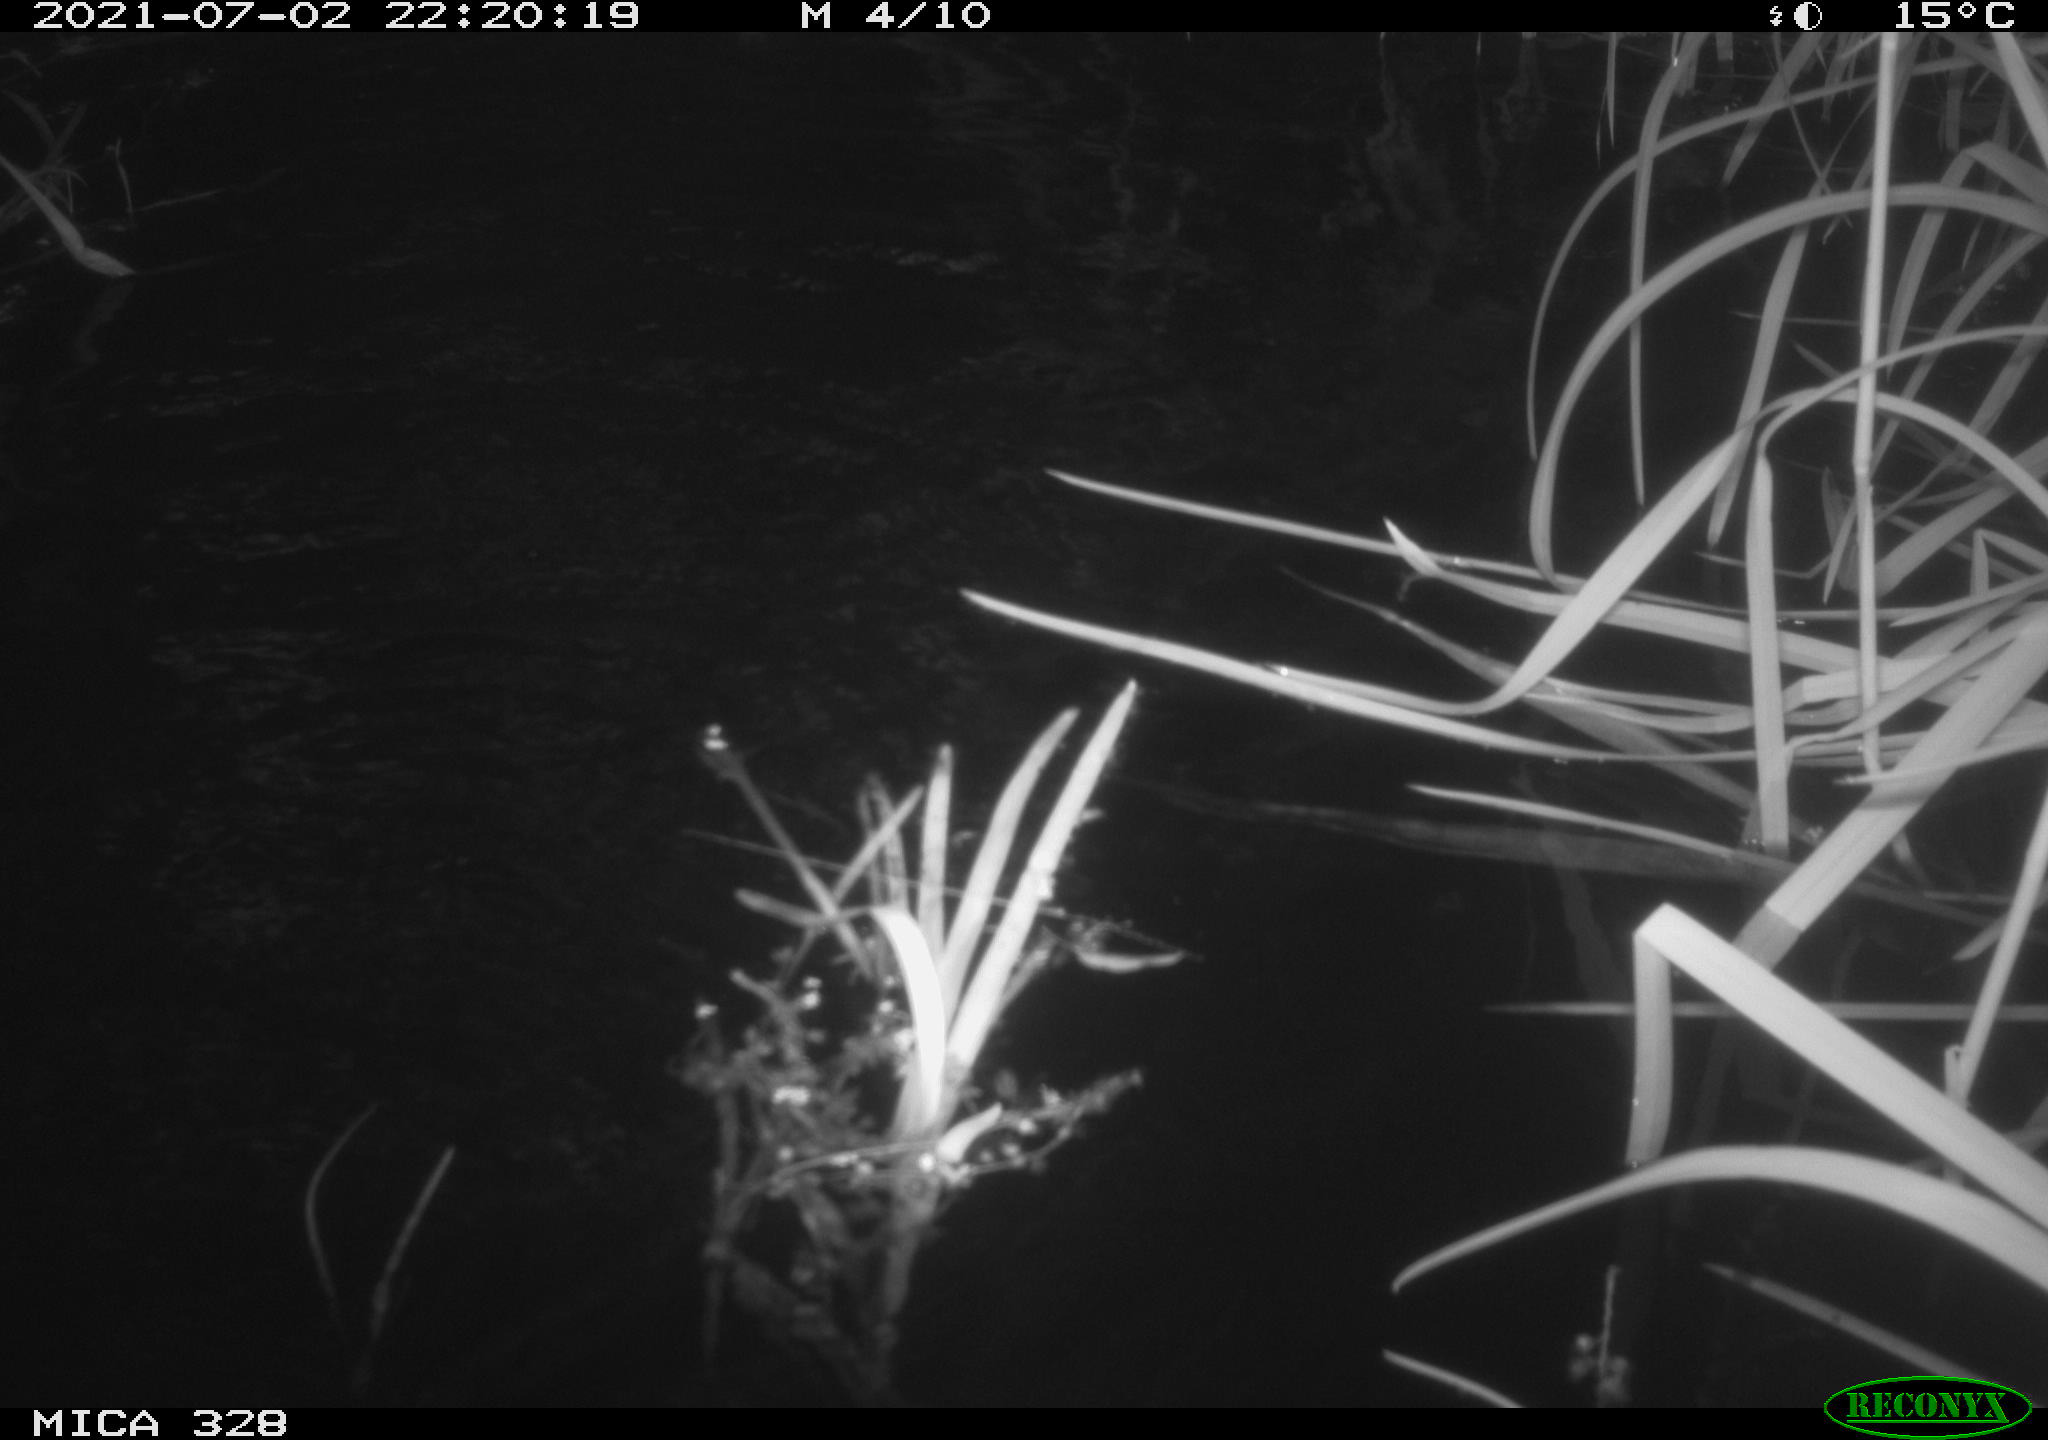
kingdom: Animalia
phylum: Chordata
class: Mammalia
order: Rodentia
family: Cricetidae
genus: Ondatra
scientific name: Ondatra zibethicus
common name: Muskrat
